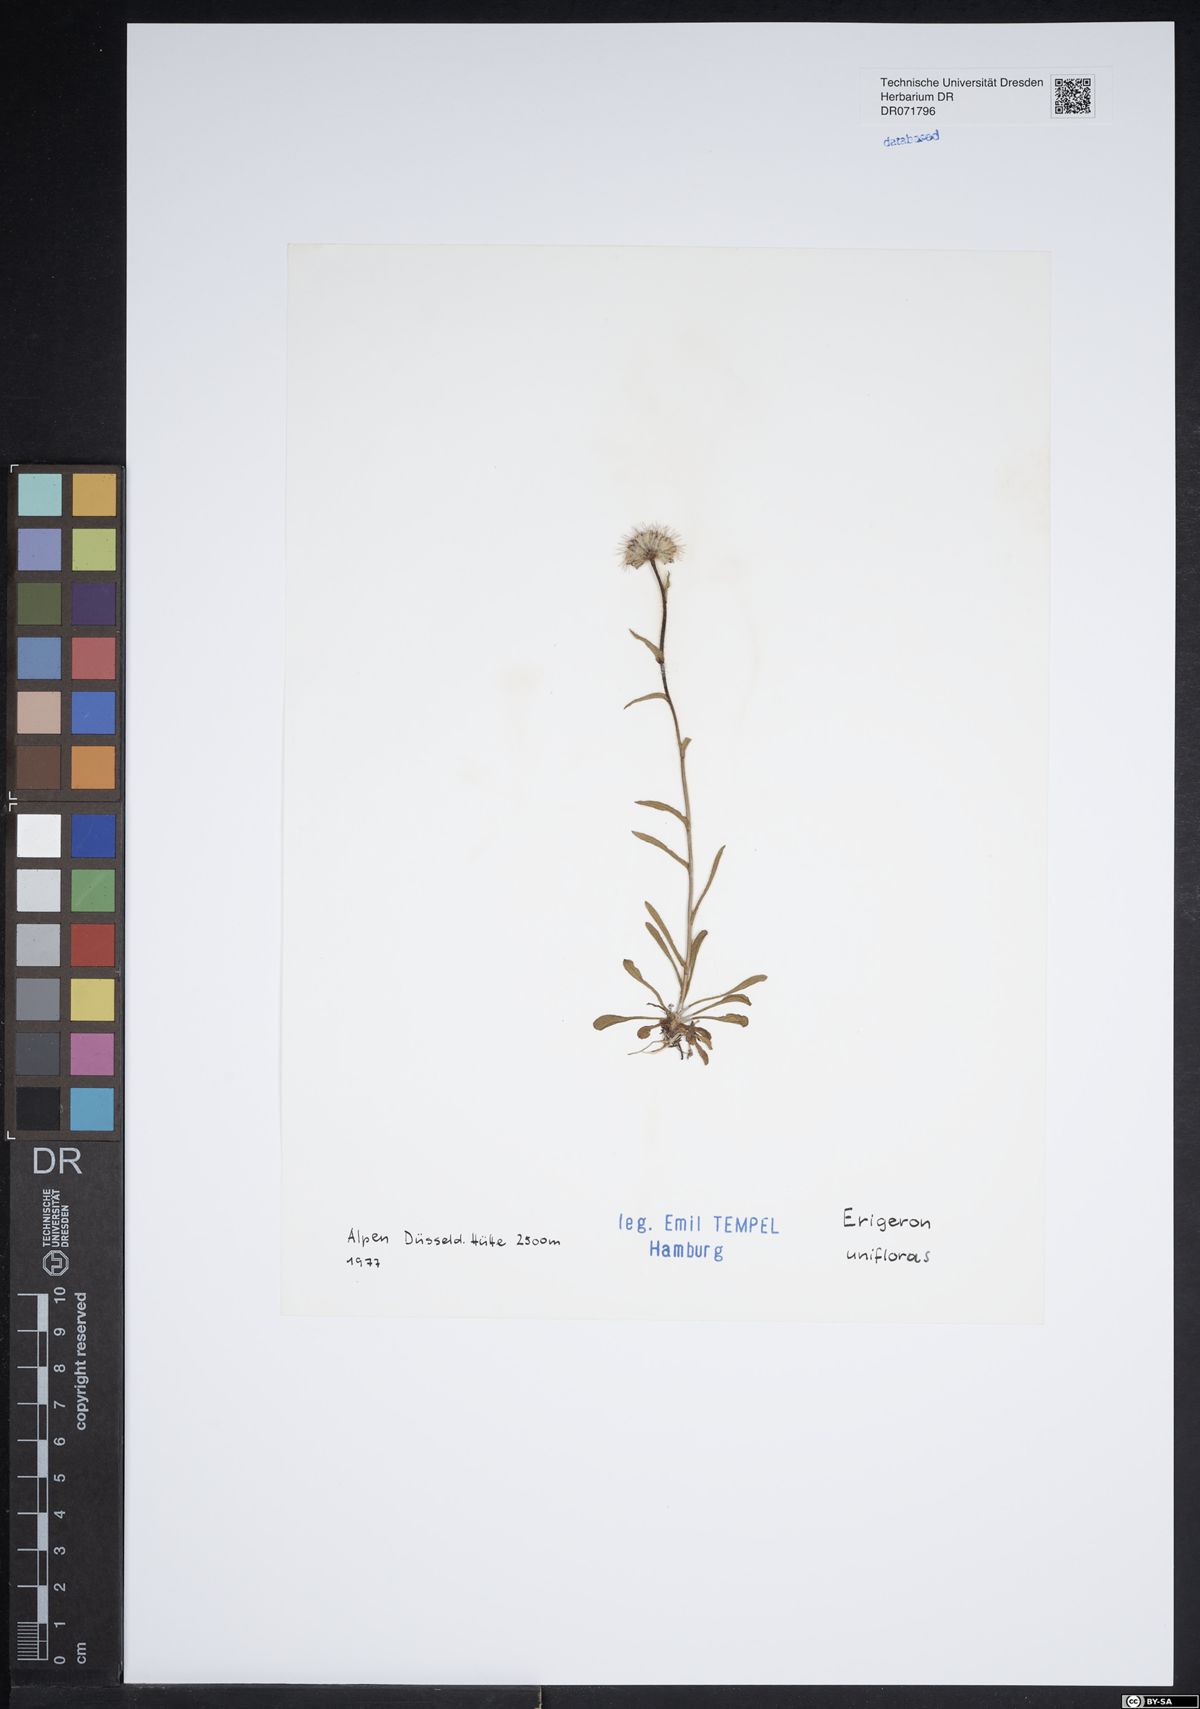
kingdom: Plantae
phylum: Tracheophyta
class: Magnoliopsida
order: Asterales
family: Asteraceae
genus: Erigeron
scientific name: Erigeron uniflorus
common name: Northern daisy
